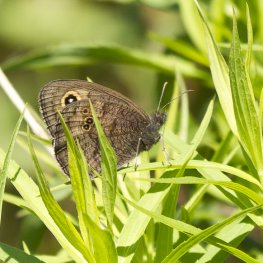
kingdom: Animalia
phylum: Arthropoda
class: Insecta
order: Lepidoptera
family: Nymphalidae
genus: Cercyonis
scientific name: Cercyonis pegala
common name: Common Wood-Nymph
